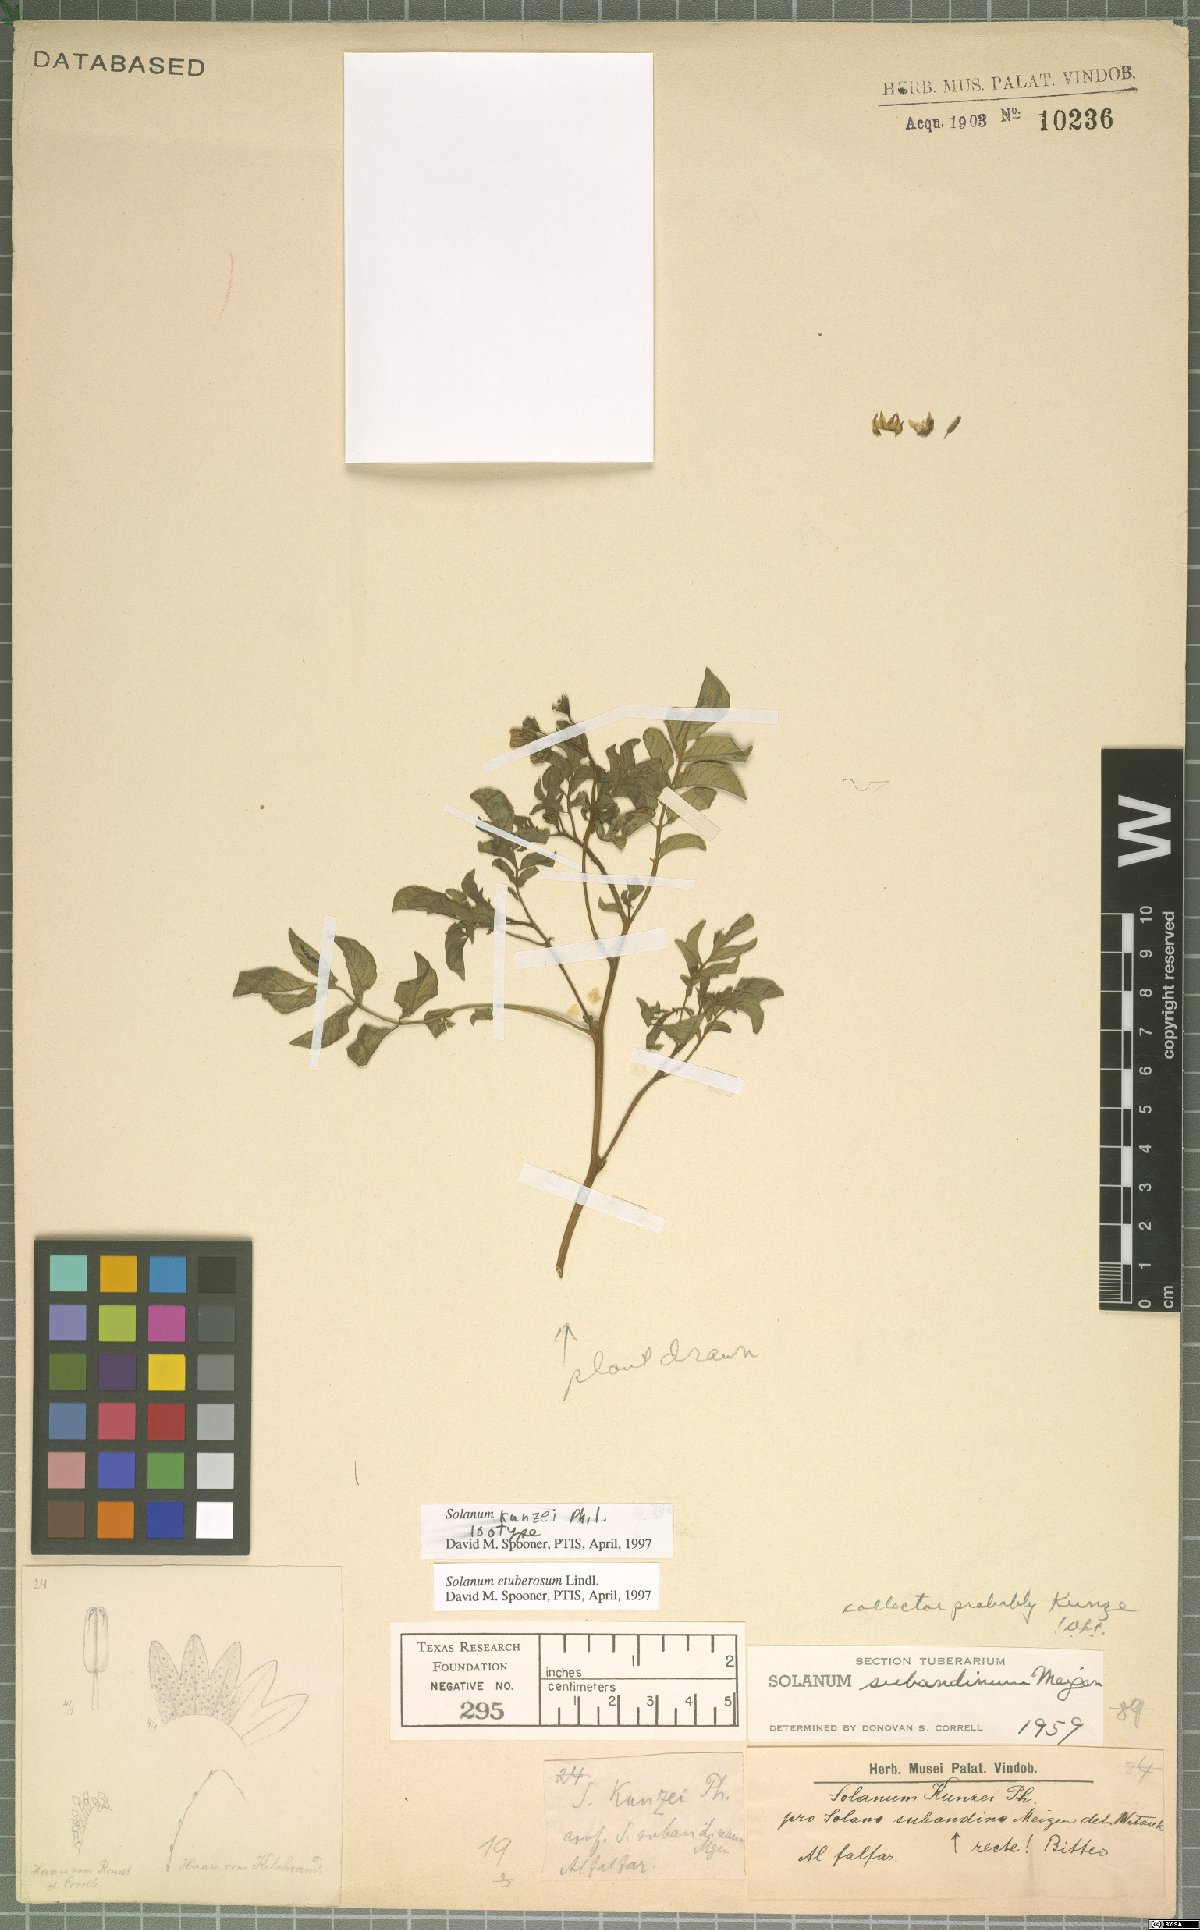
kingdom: Plantae
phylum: Tracheophyta
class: Magnoliopsida
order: Solanales
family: Solanaceae
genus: Solanum
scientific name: Solanum etuberosum
